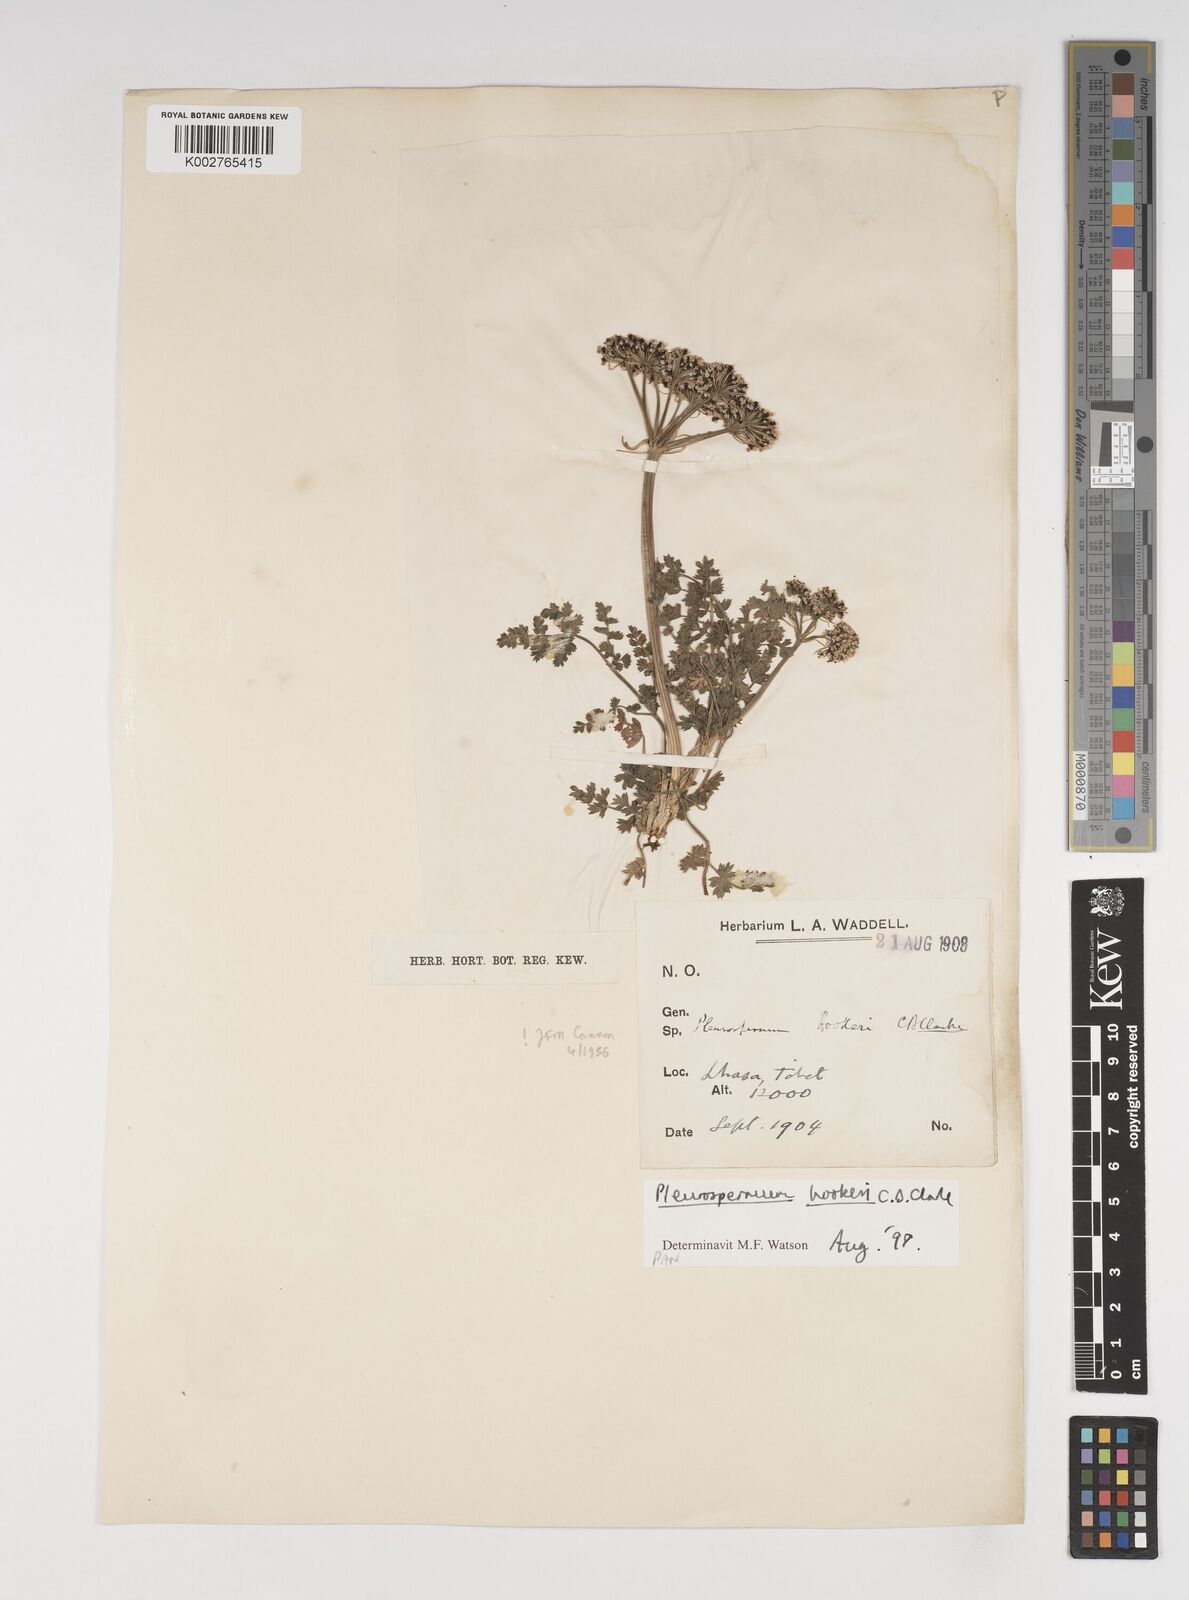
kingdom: Plantae
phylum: Tracheophyta
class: Magnoliopsida
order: Apiales
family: Apiaceae
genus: Pleurospermum
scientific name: Pleurospermum hookeri
